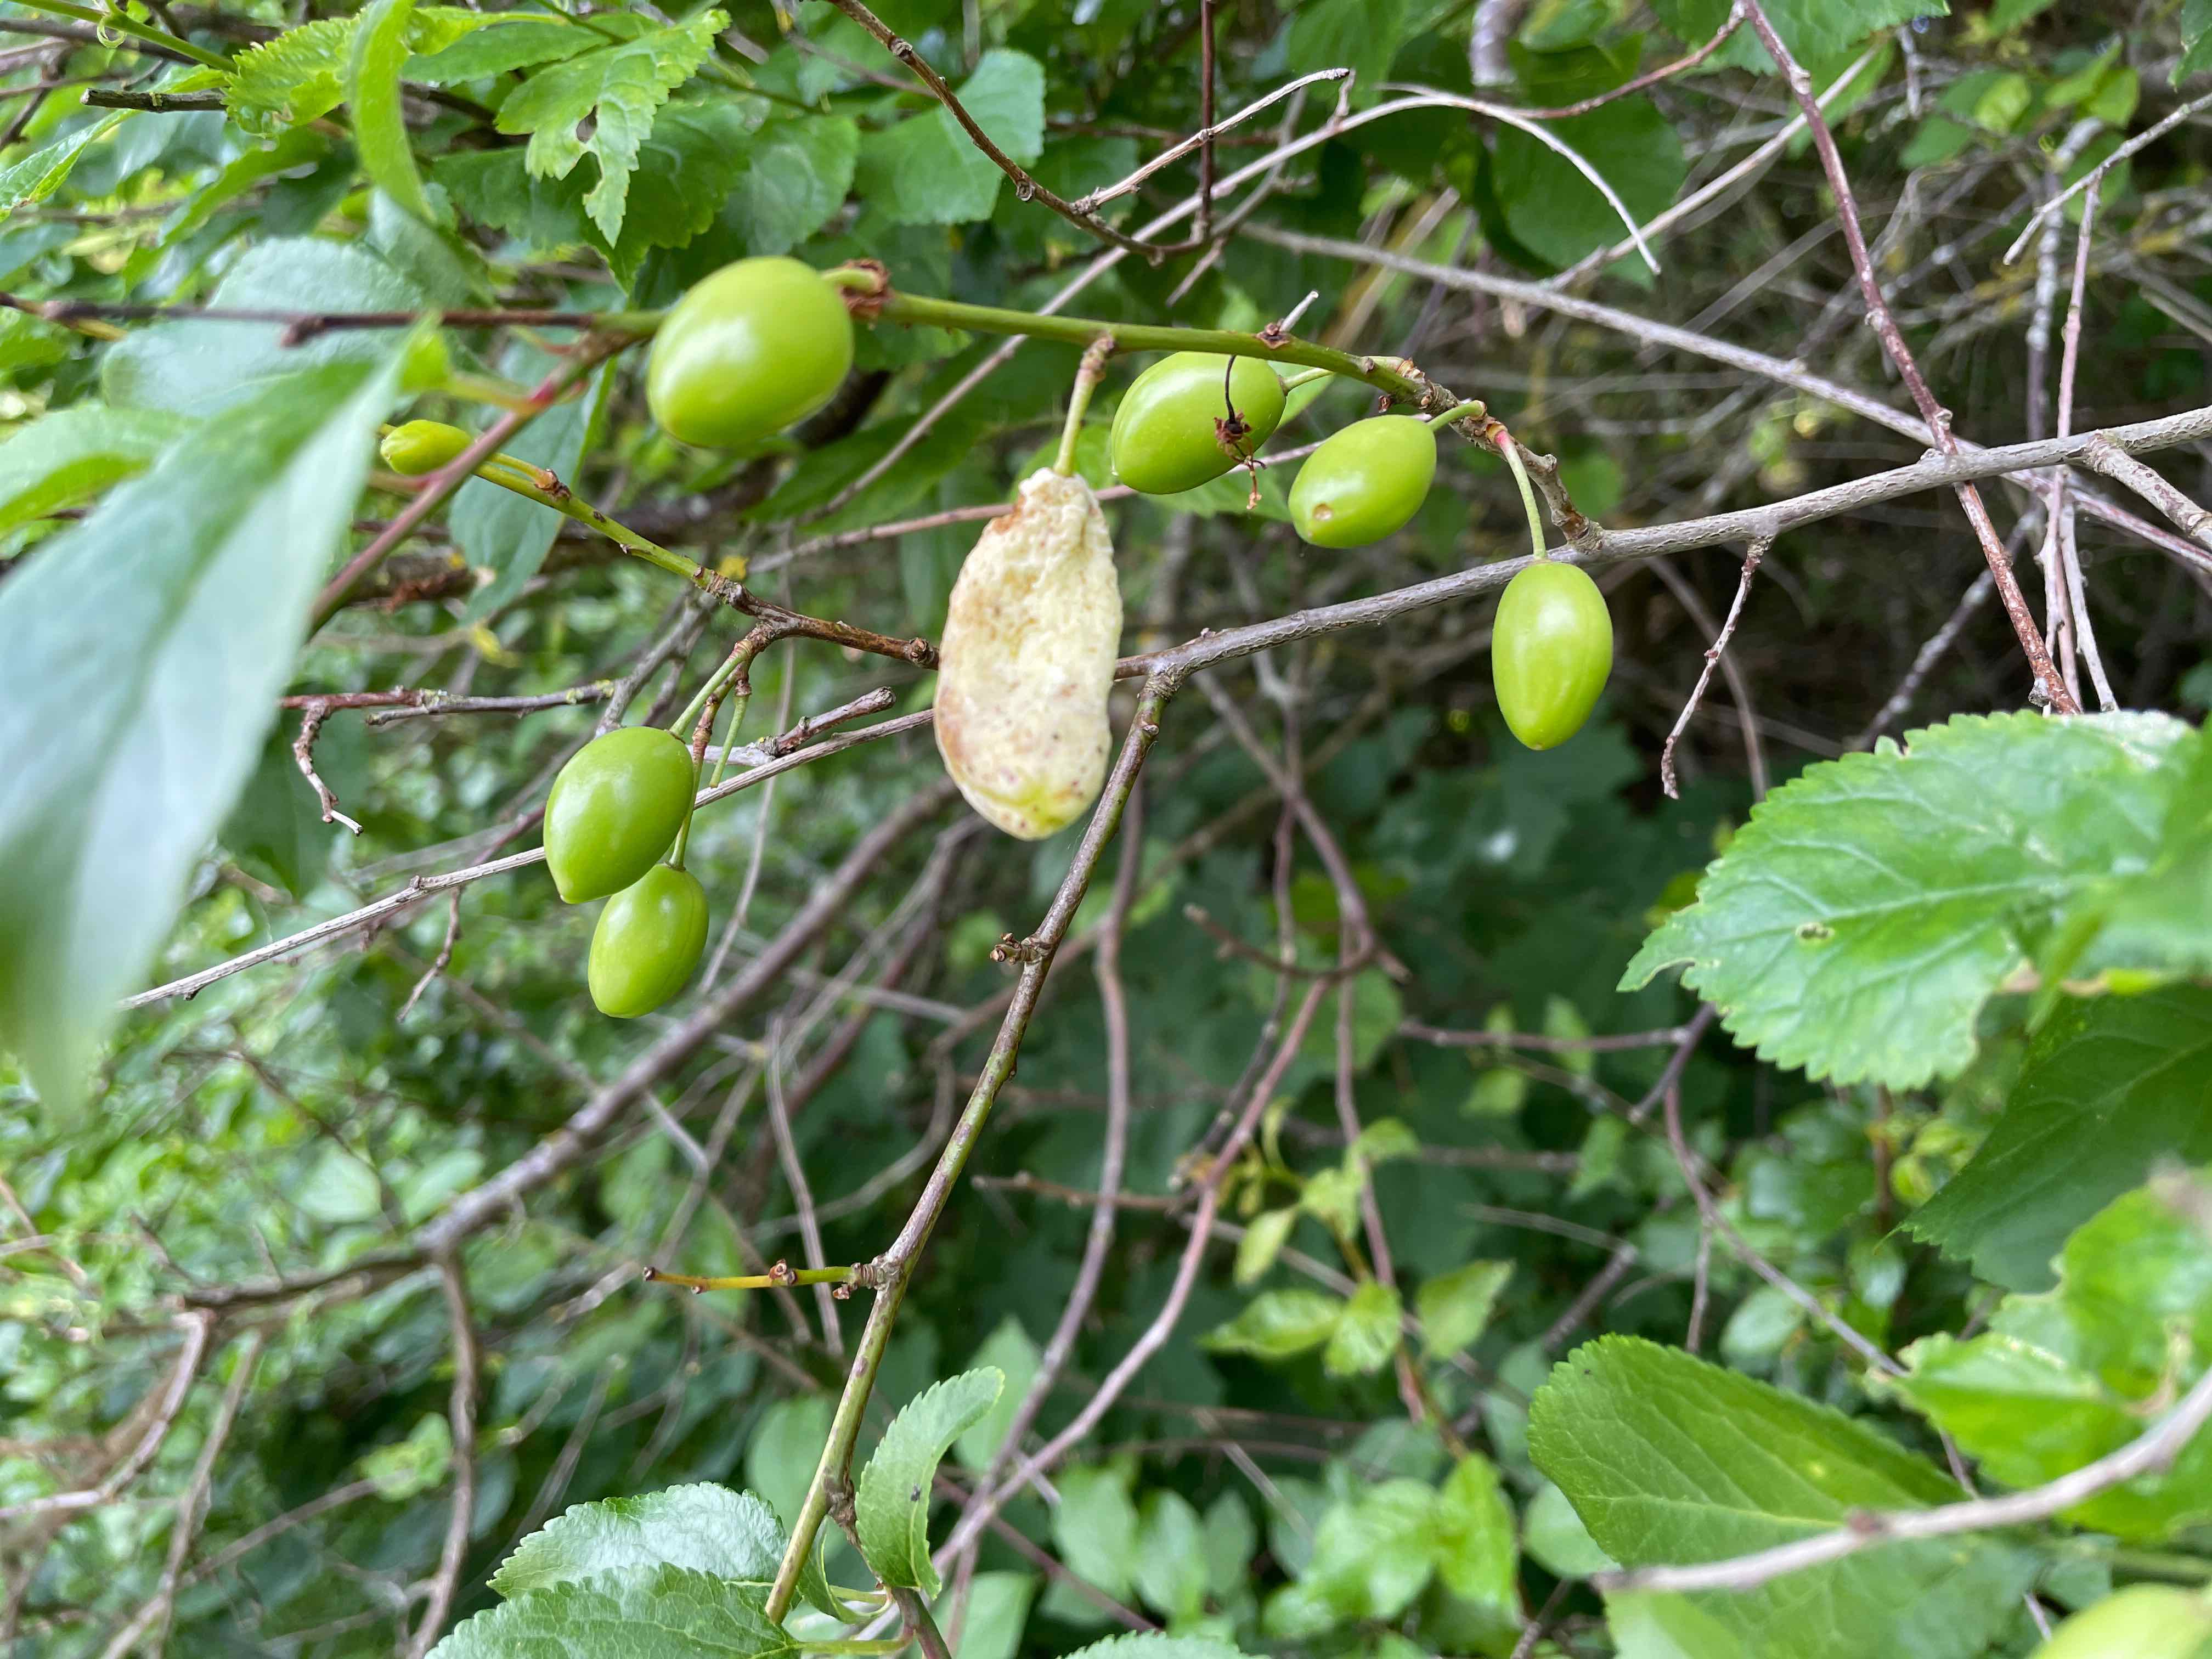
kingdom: Fungi
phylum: Ascomycota
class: Taphrinomycetes
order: Taphrinales
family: Taphrinaceae
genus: Taphrina
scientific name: Taphrina pruni
